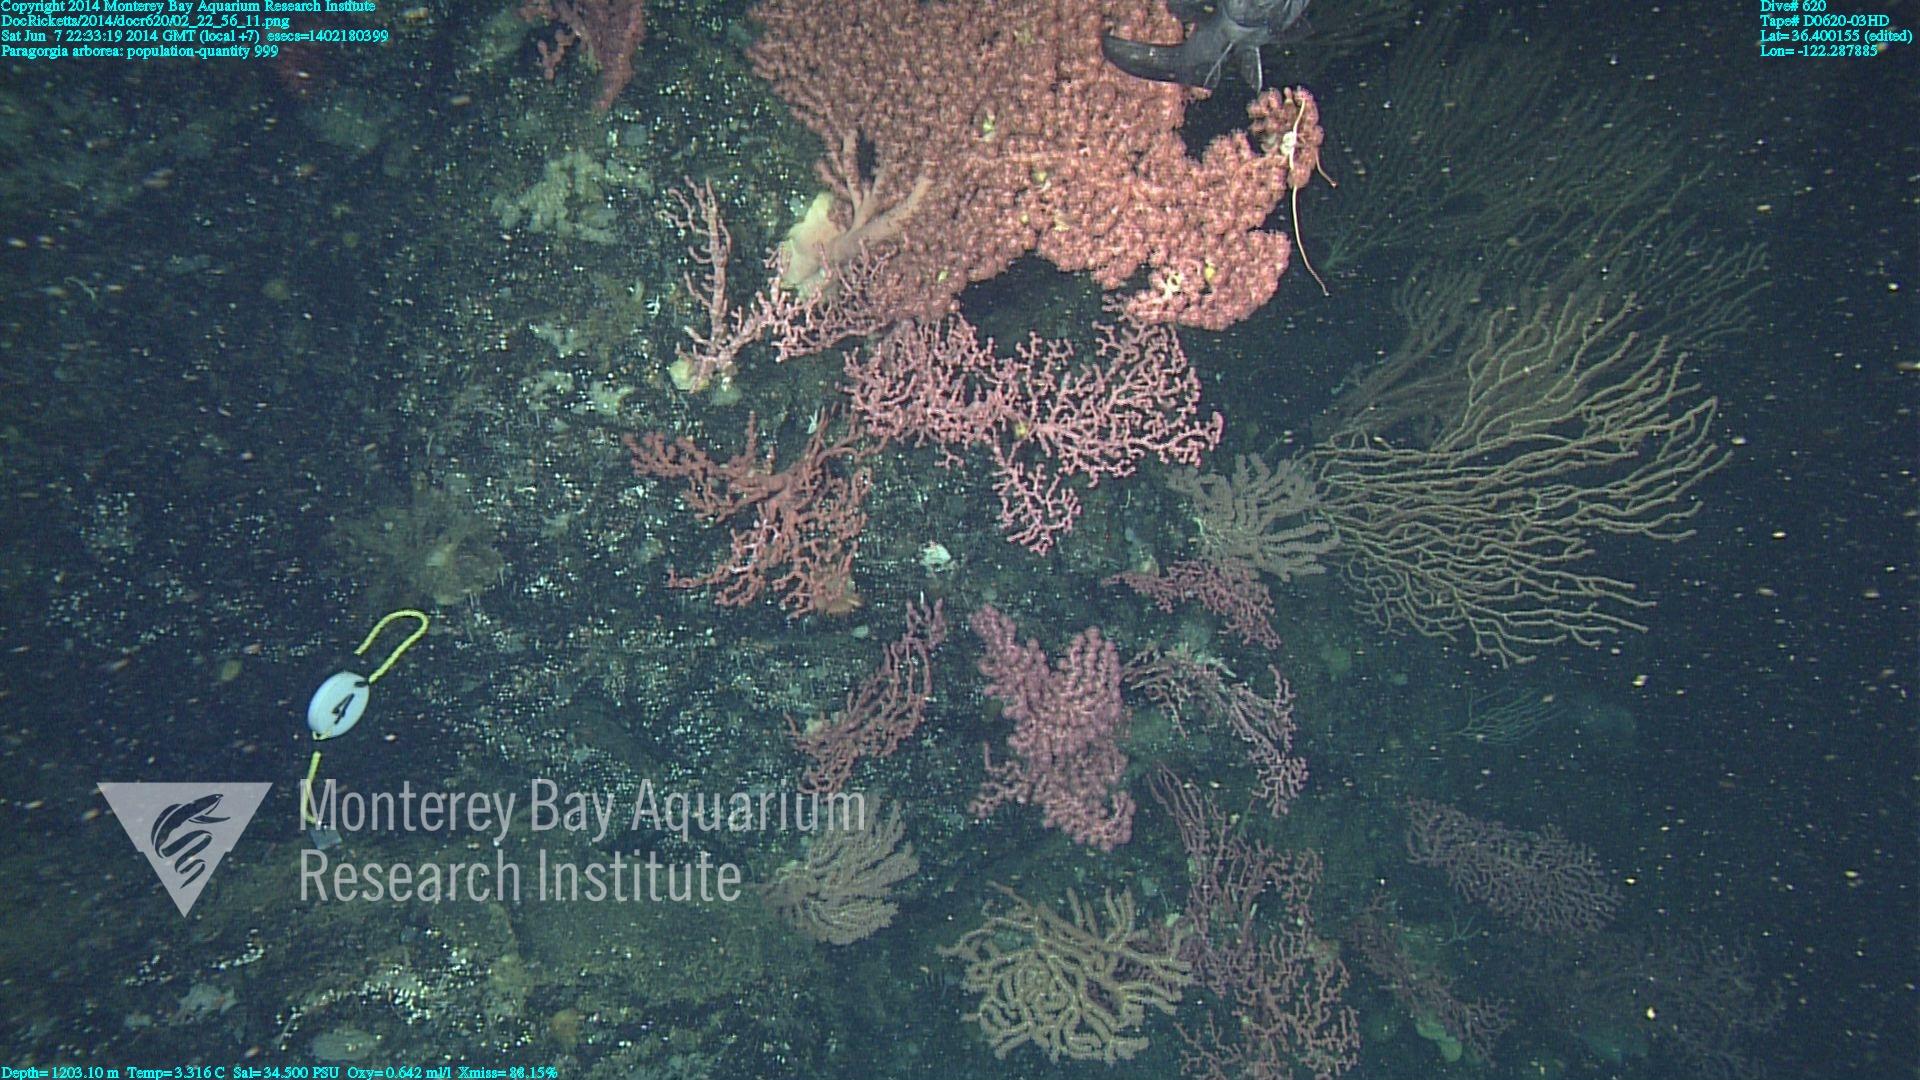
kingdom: Animalia
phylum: Cnidaria
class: Anthozoa
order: Scleralcyonacea
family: Coralliidae
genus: Paragorgia
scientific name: Paragorgia arborea
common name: Bubble gum coral
